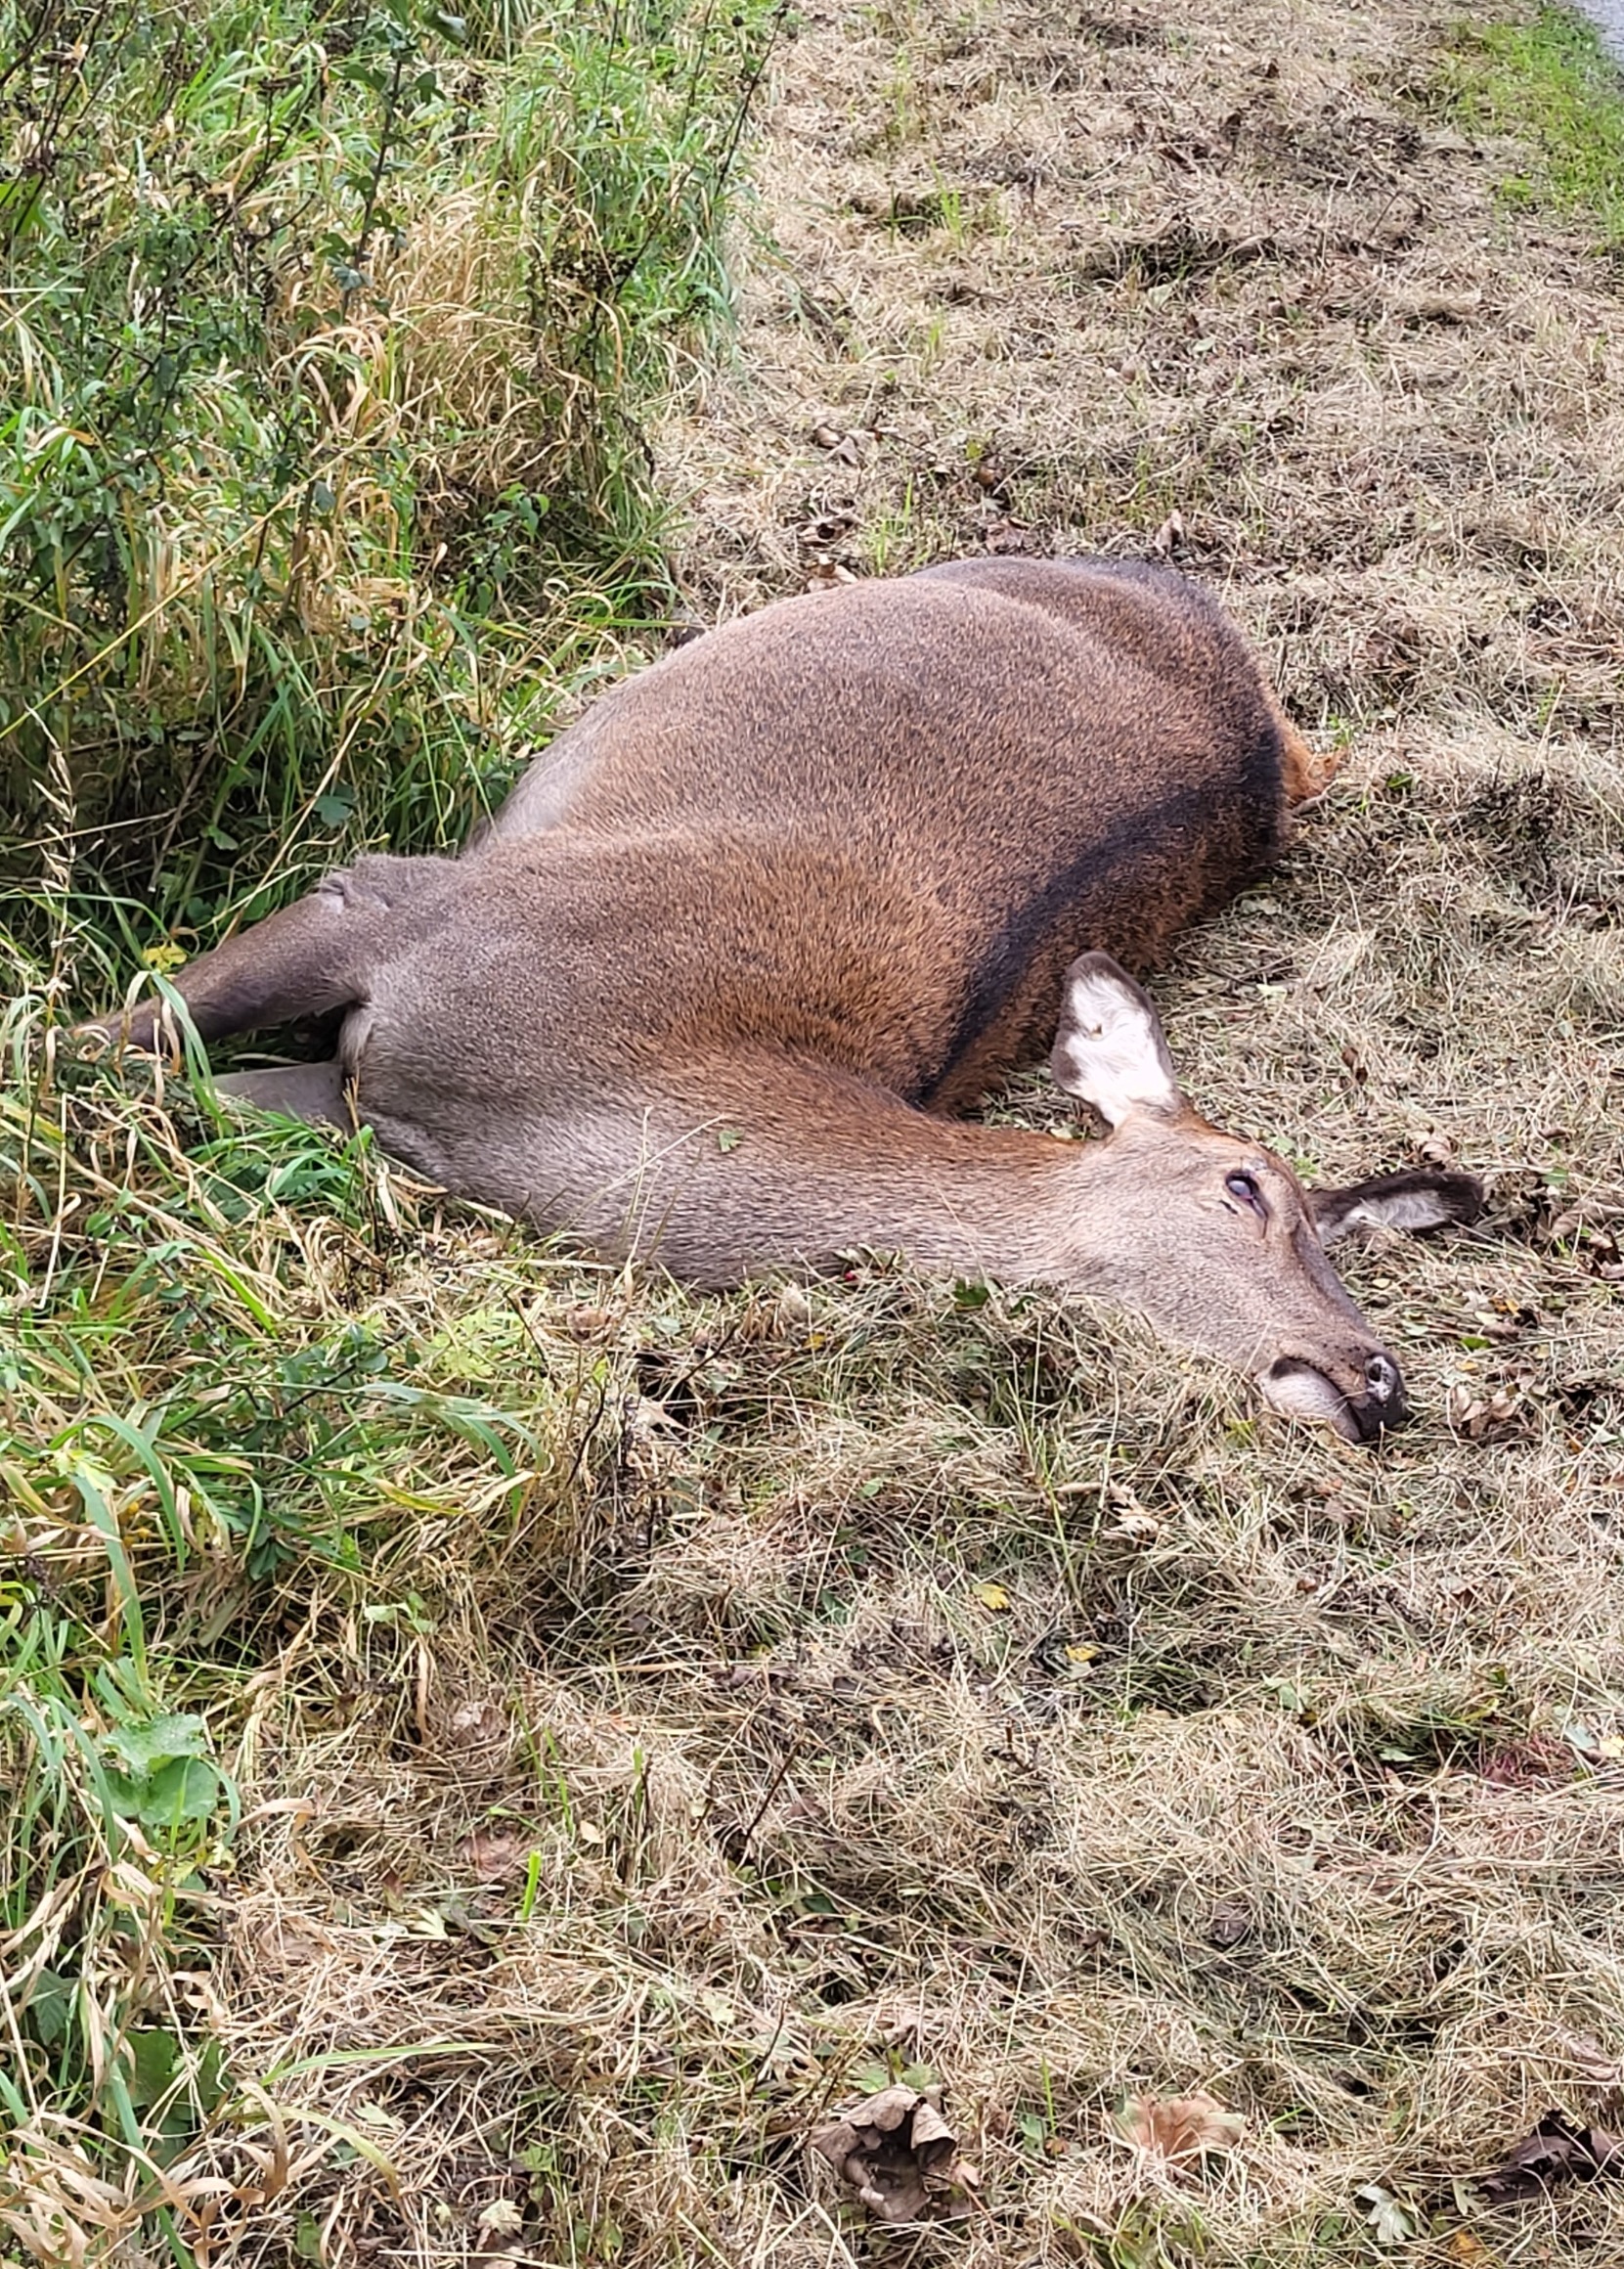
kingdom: Animalia
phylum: Chordata
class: Mammalia
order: Artiodactyla
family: Cervidae
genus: Cervus
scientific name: Cervus elaphus
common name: Krondyr
